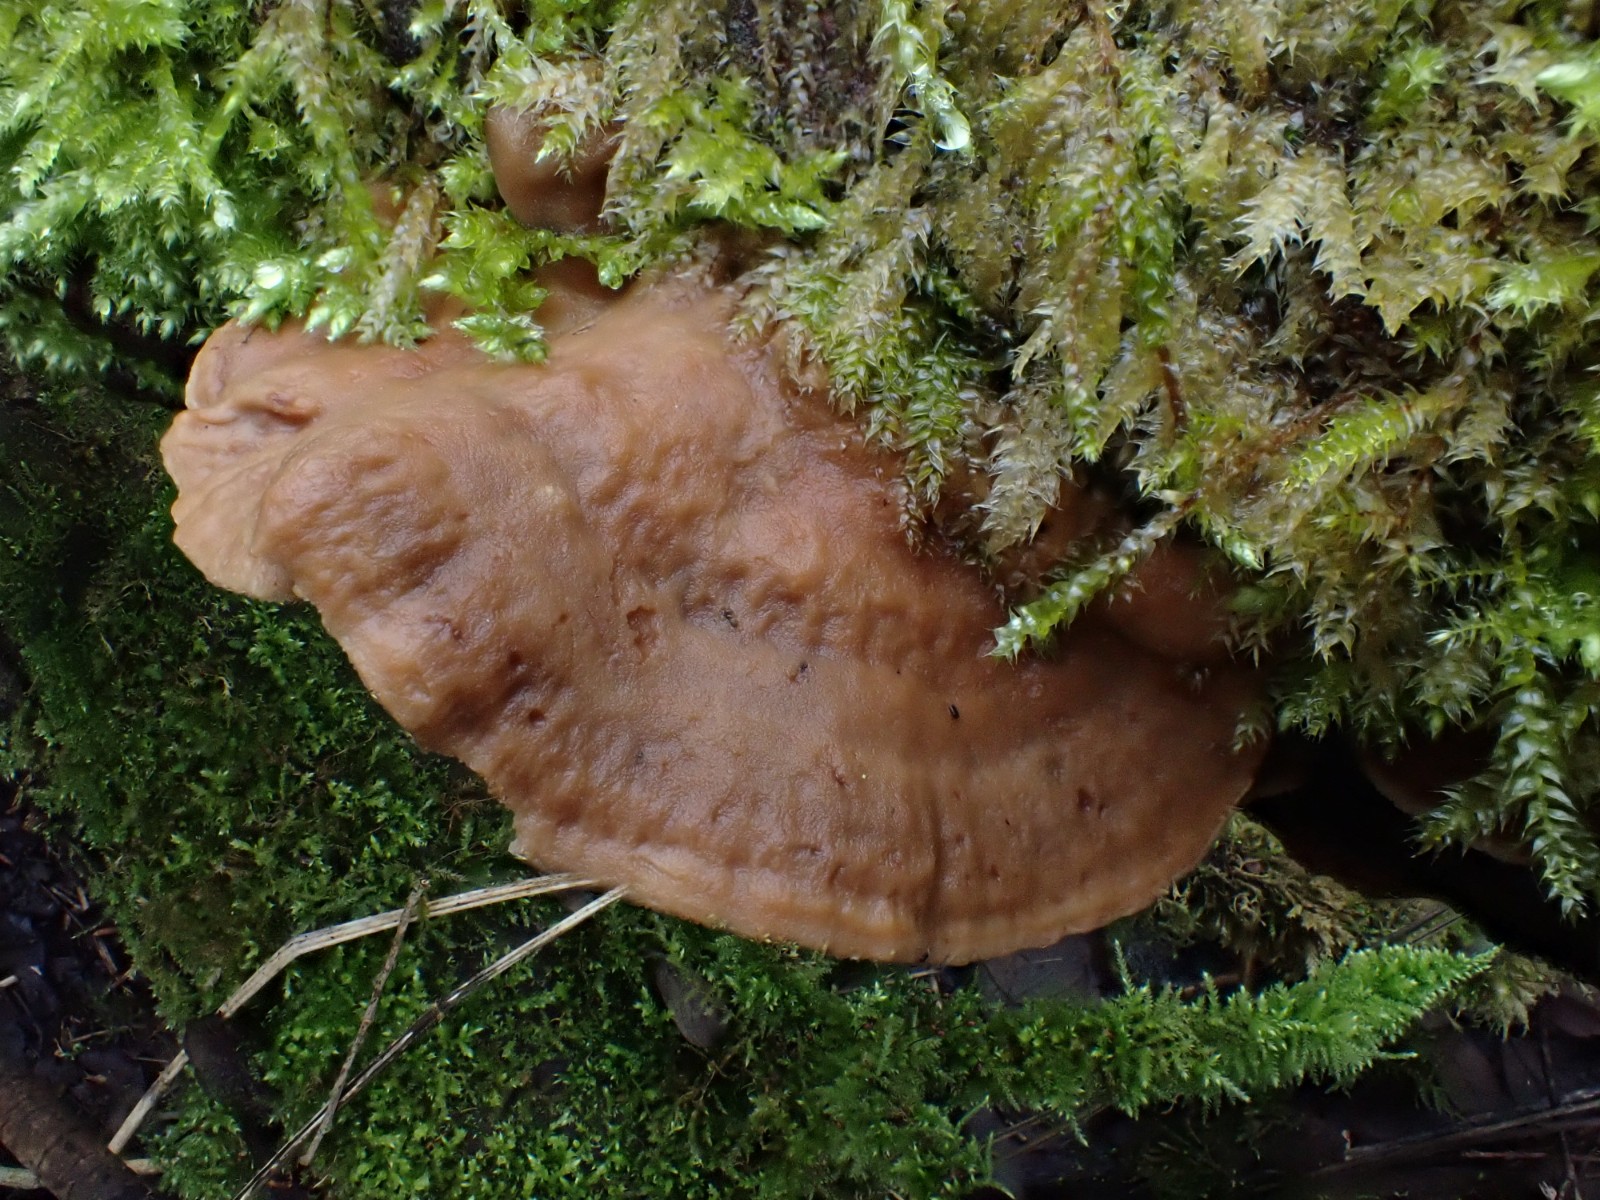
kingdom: Fungi
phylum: Basidiomycota
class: Agaricomycetes
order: Polyporales
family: Phanerochaetaceae
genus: Bjerkandera
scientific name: Bjerkandera fumosa
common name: grågul sodporesvamp
